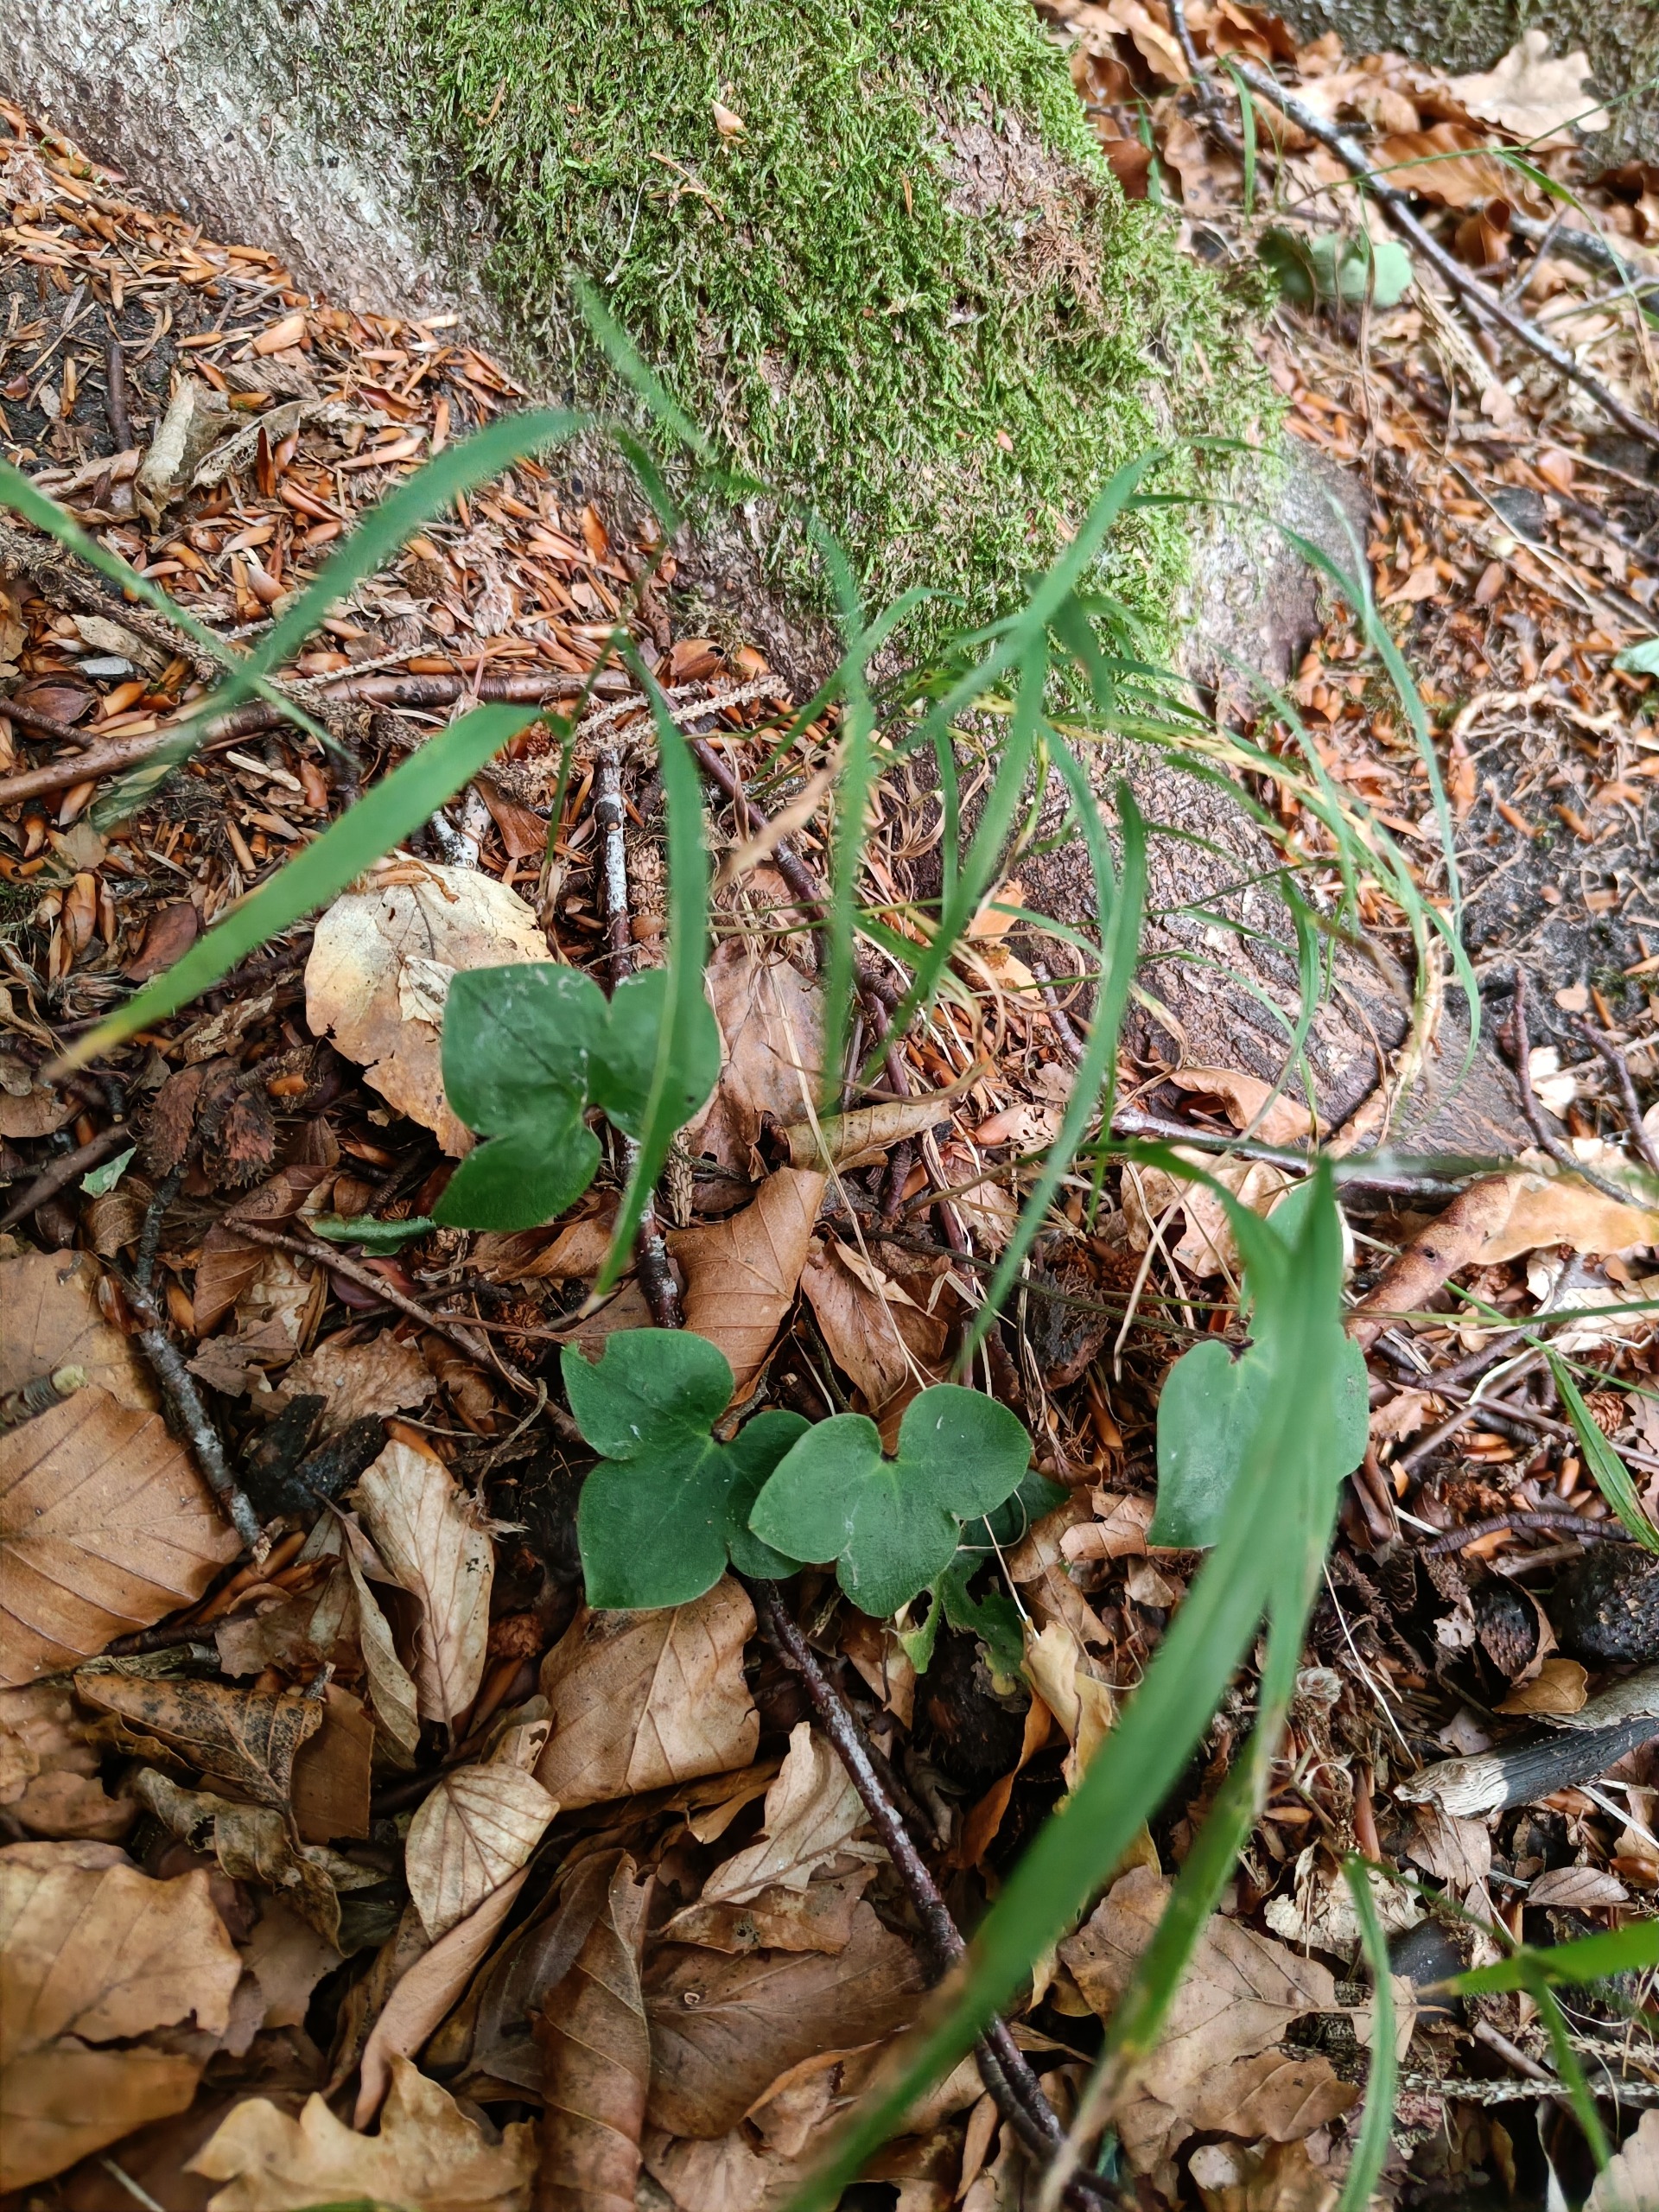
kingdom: Plantae
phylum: Tracheophyta
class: Magnoliopsida
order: Ranunculales
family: Ranunculaceae
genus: Hepatica
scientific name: Hepatica nobilis
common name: Blå anemone
